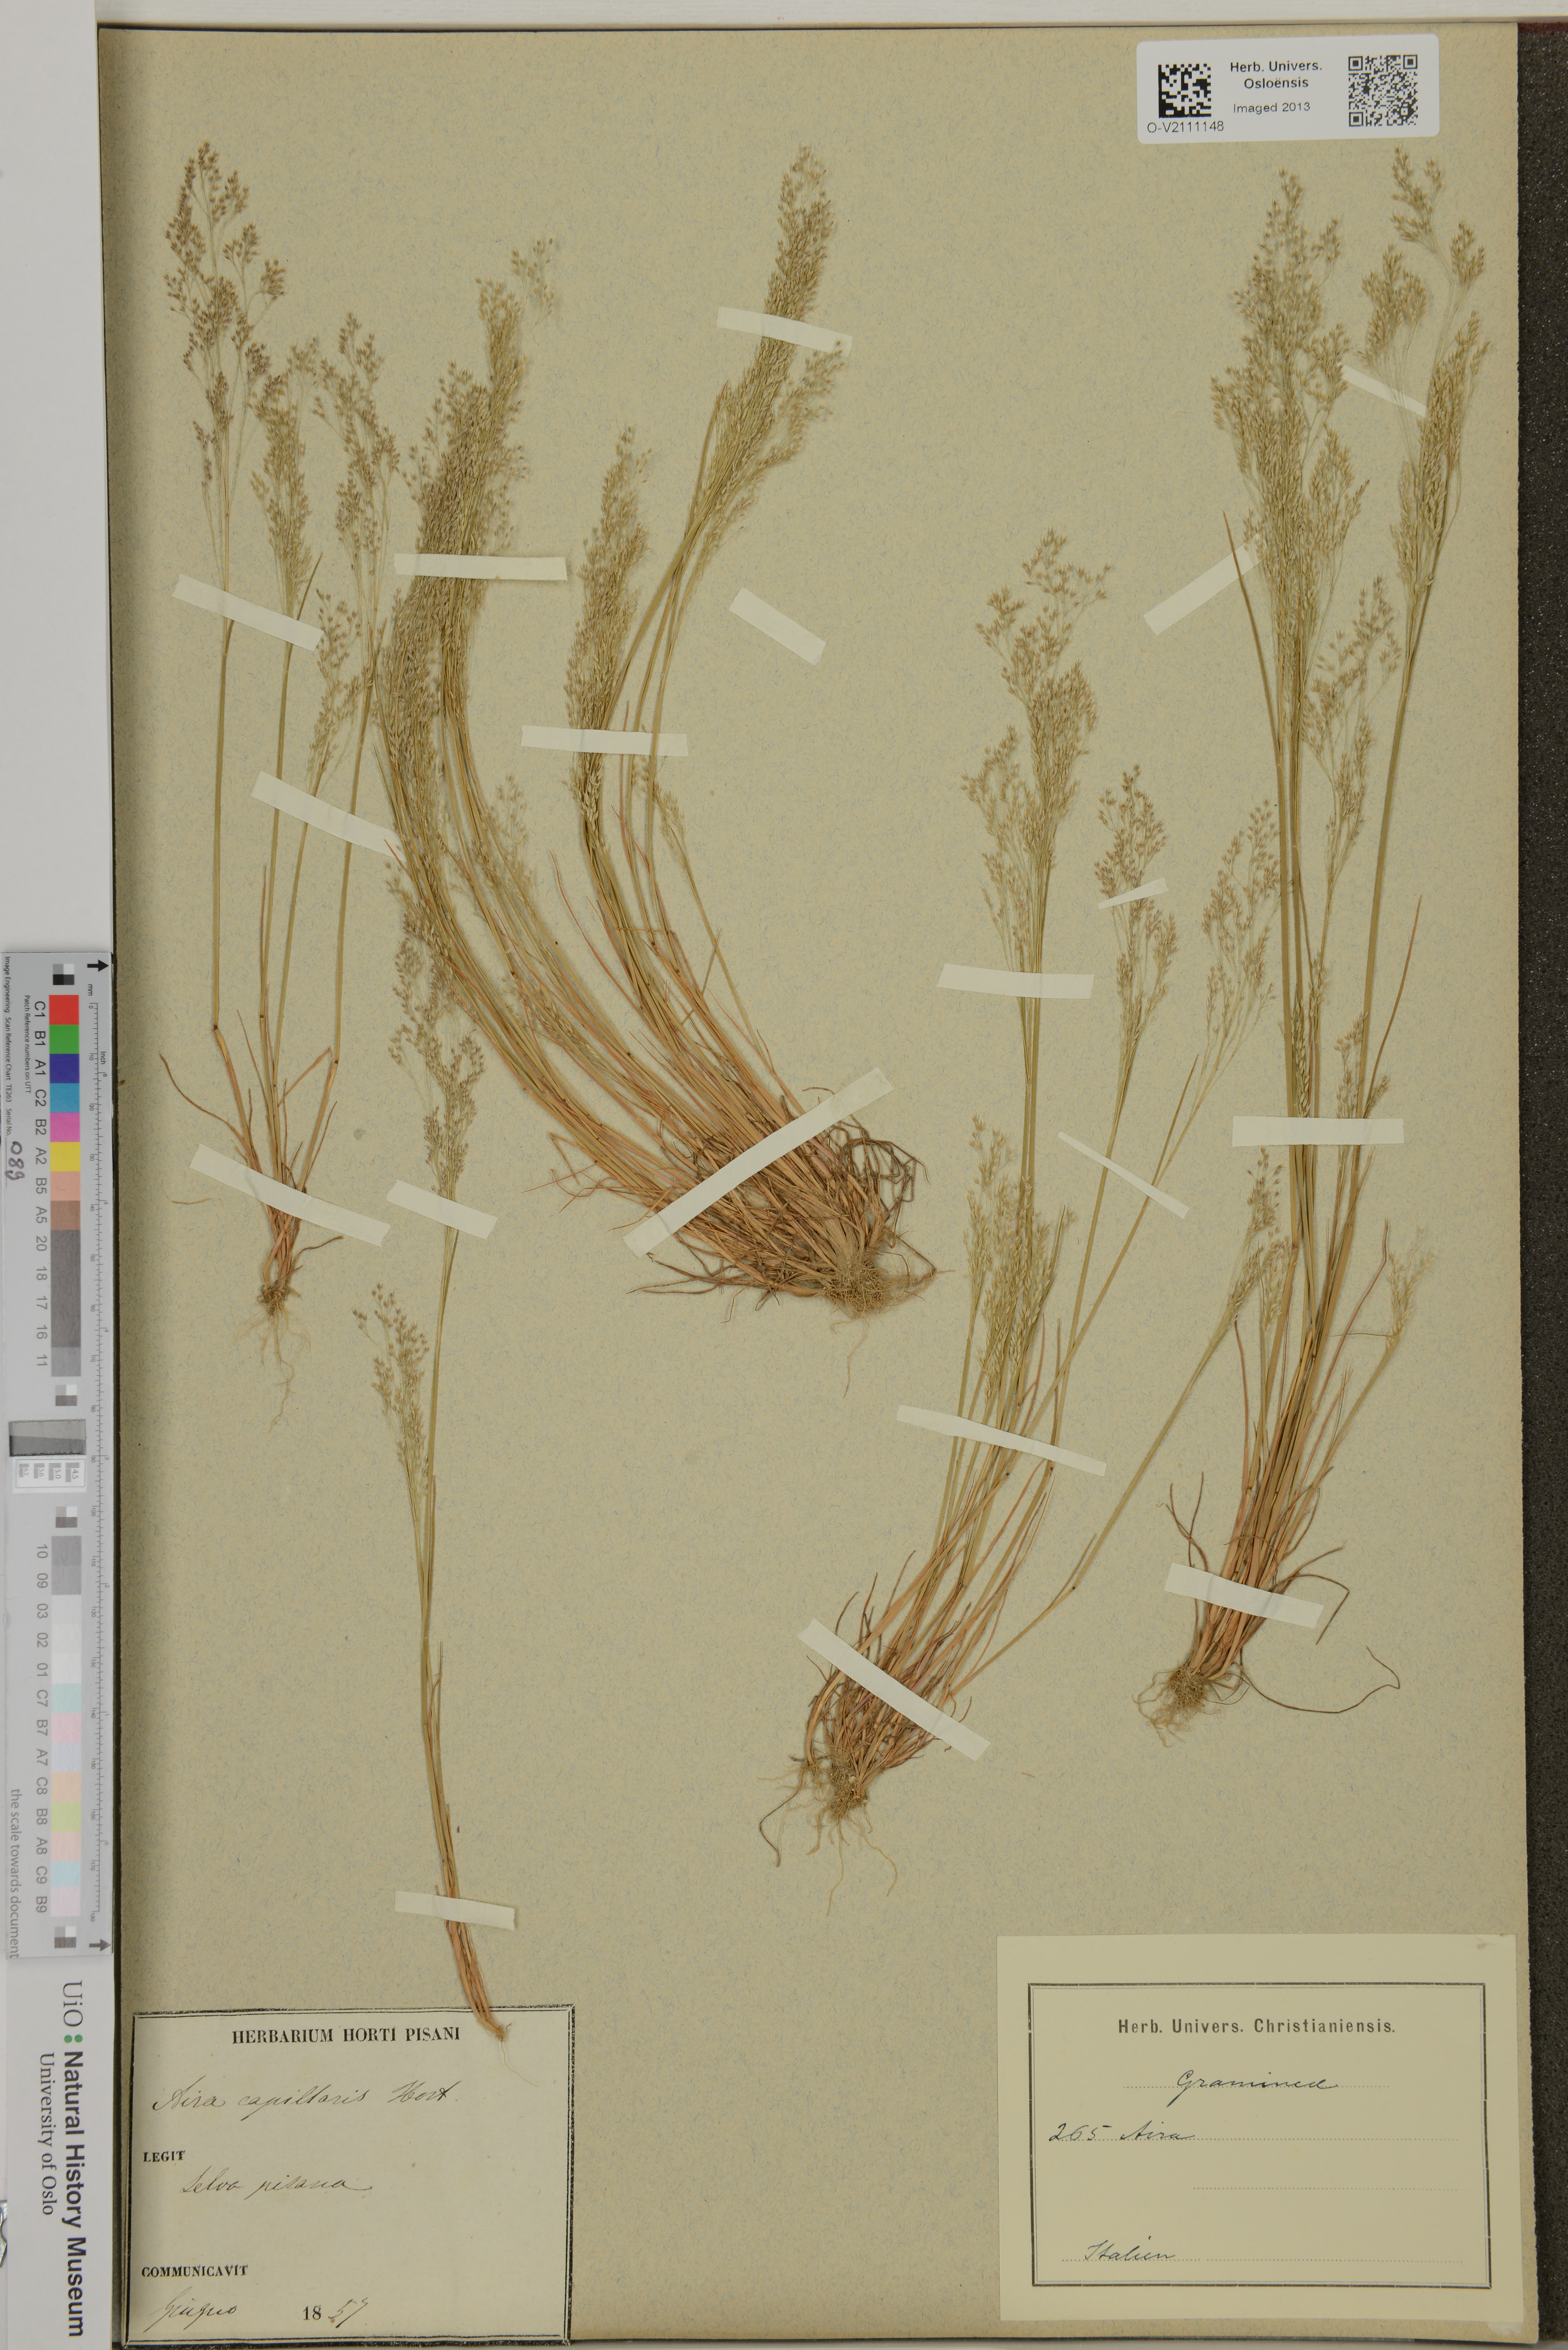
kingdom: Plantae
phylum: Tracheophyta
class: Liliopsida
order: Poales
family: Poaceae
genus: Molineriella
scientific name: Molineriella laevis
